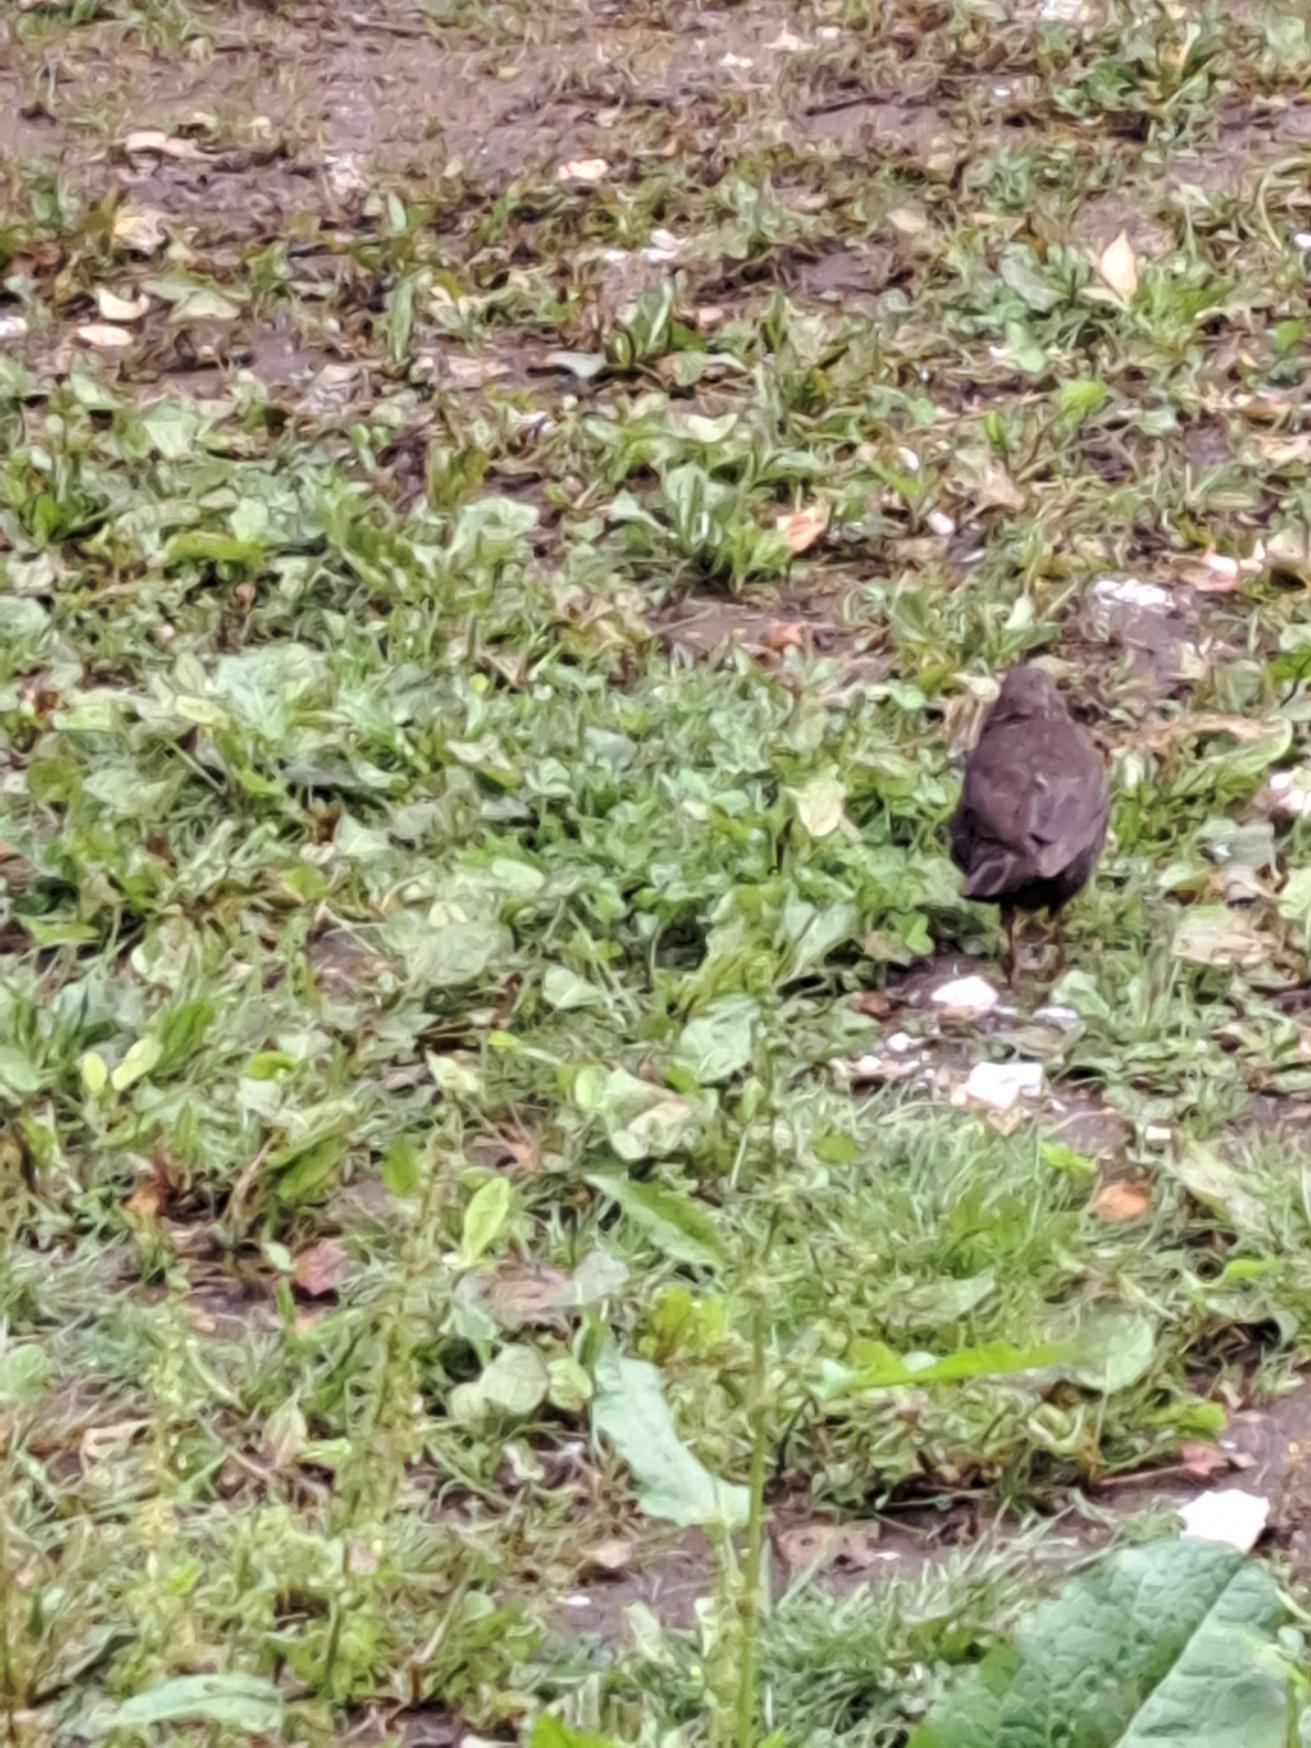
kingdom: Animalia
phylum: Chordata
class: Aves
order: Passeriformes
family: Turdidae
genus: Turdus
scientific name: Turdus merula
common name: Solsort
